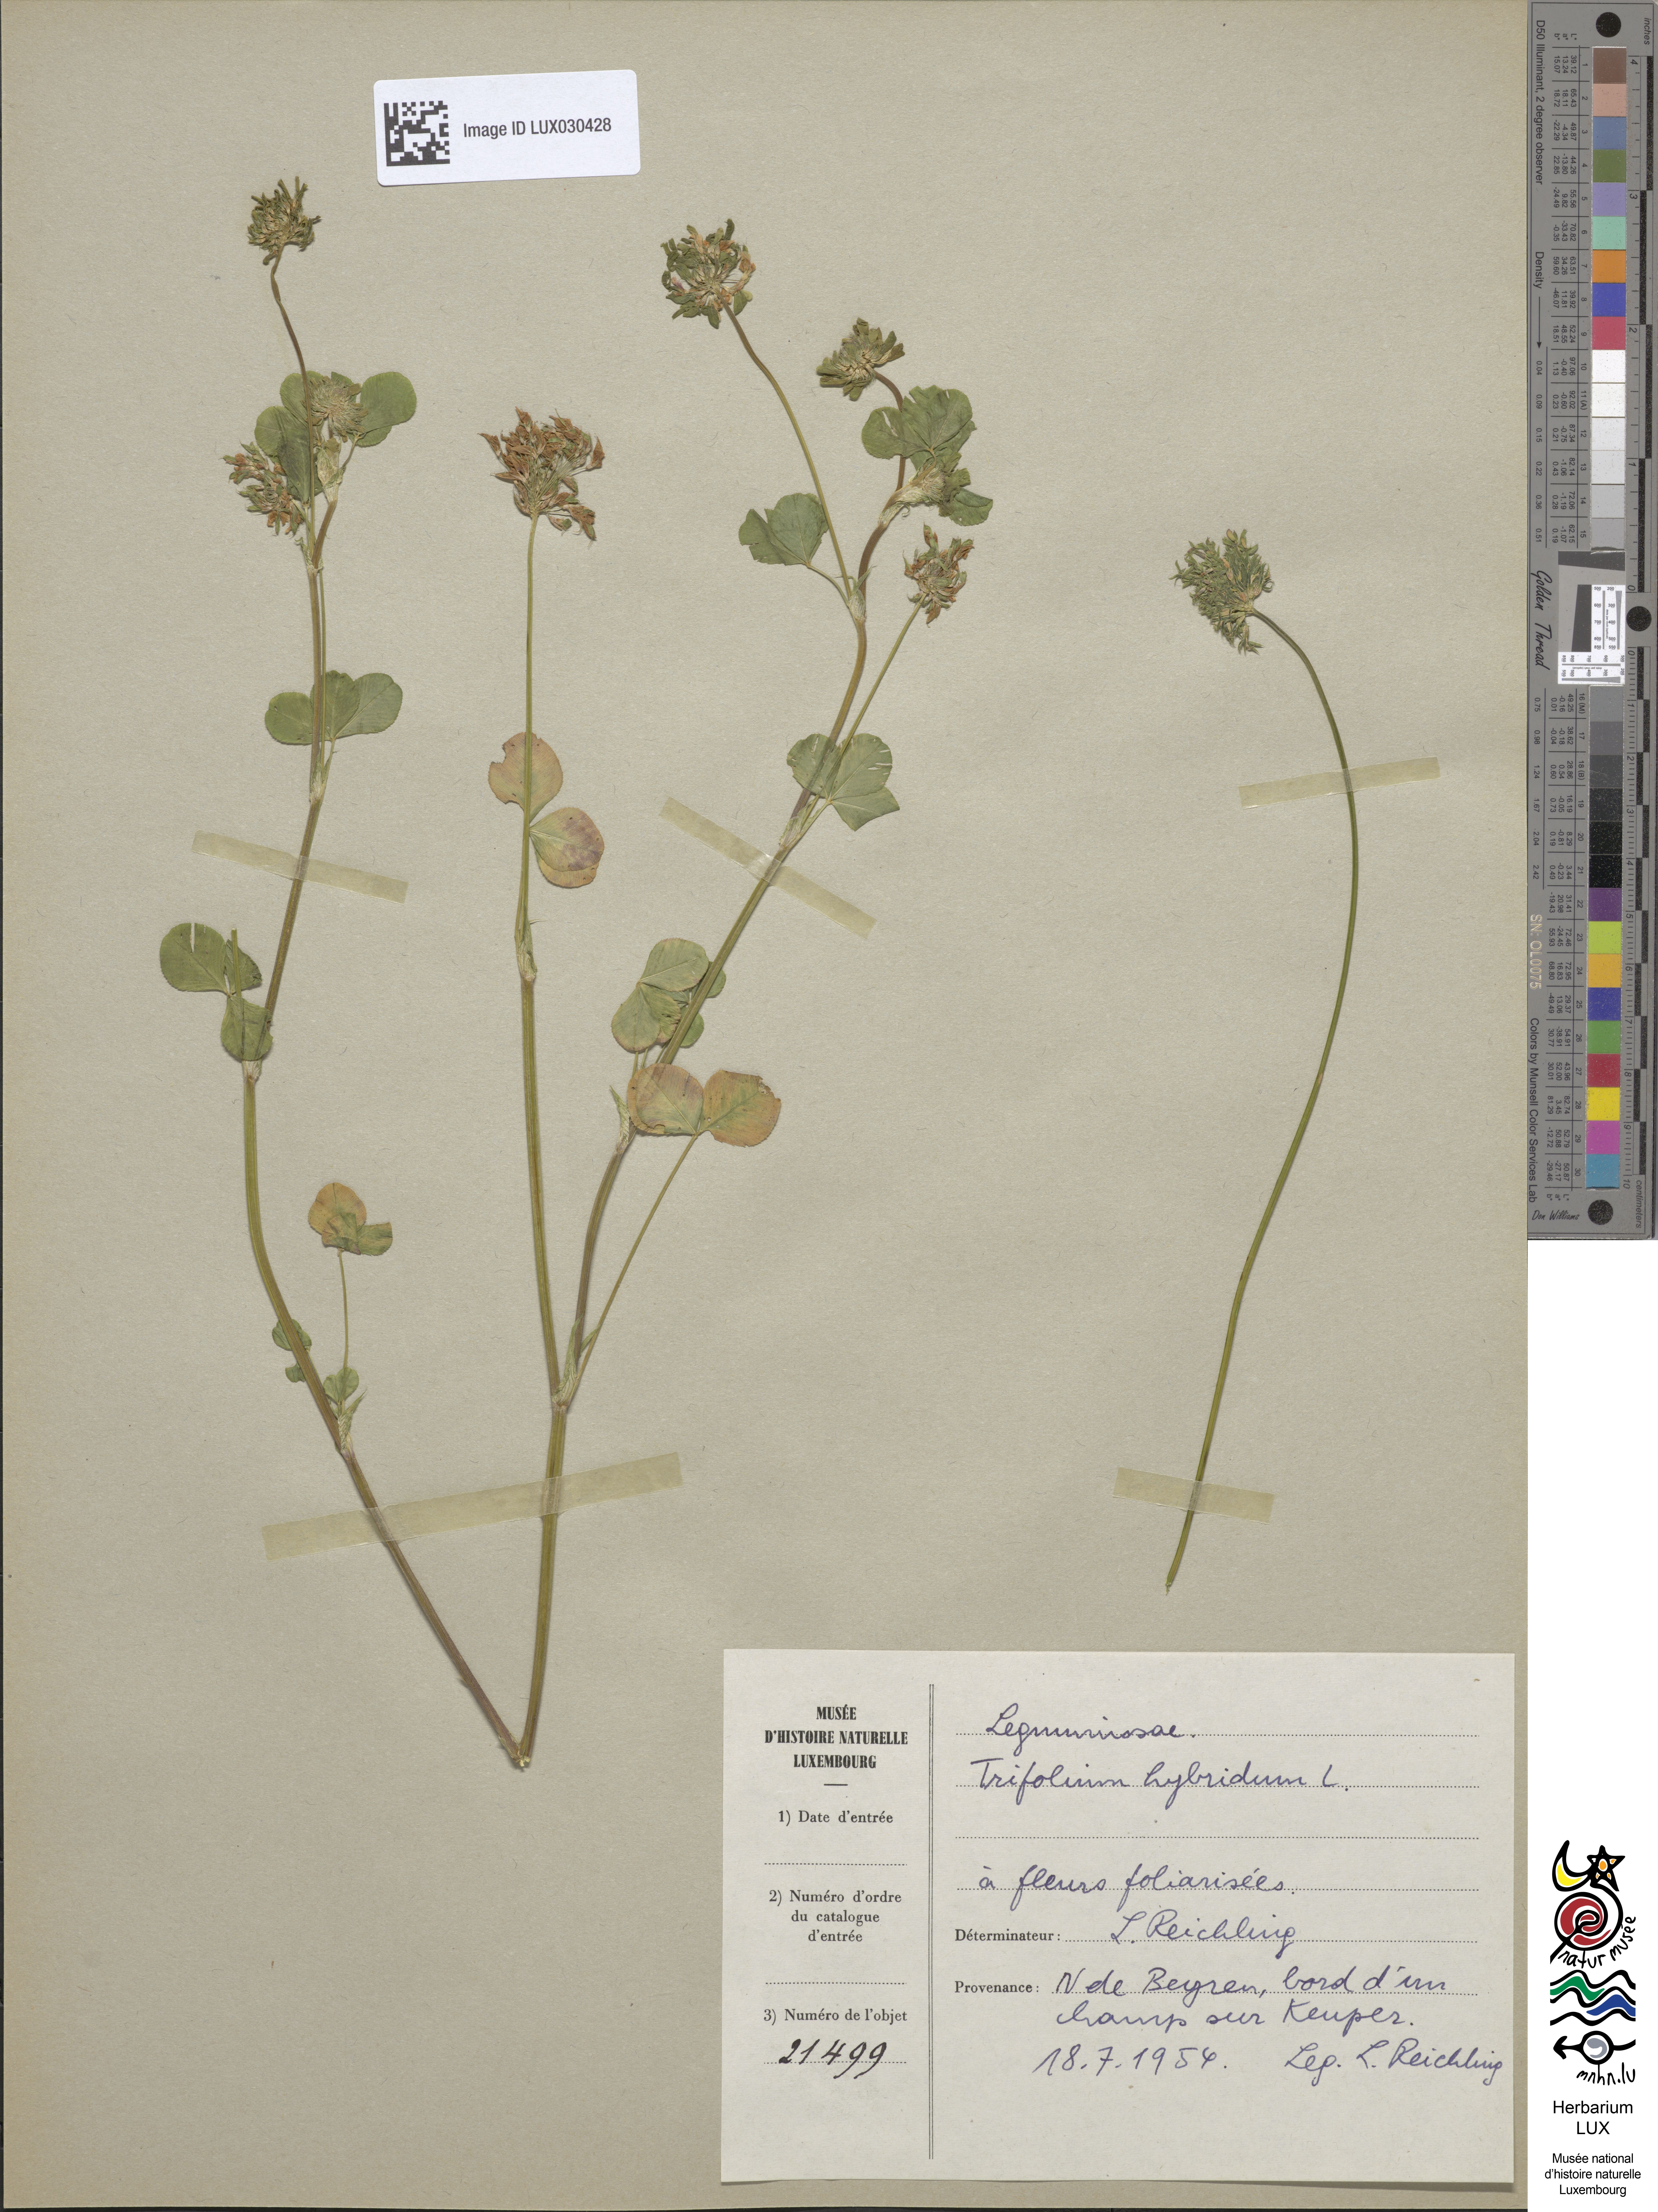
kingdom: Plantae
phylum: Tracheophyta
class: Magnoliopsida
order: Fabales
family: Fabaceae
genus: Trifolium
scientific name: Trifolium hybridum
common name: Alsike clover
